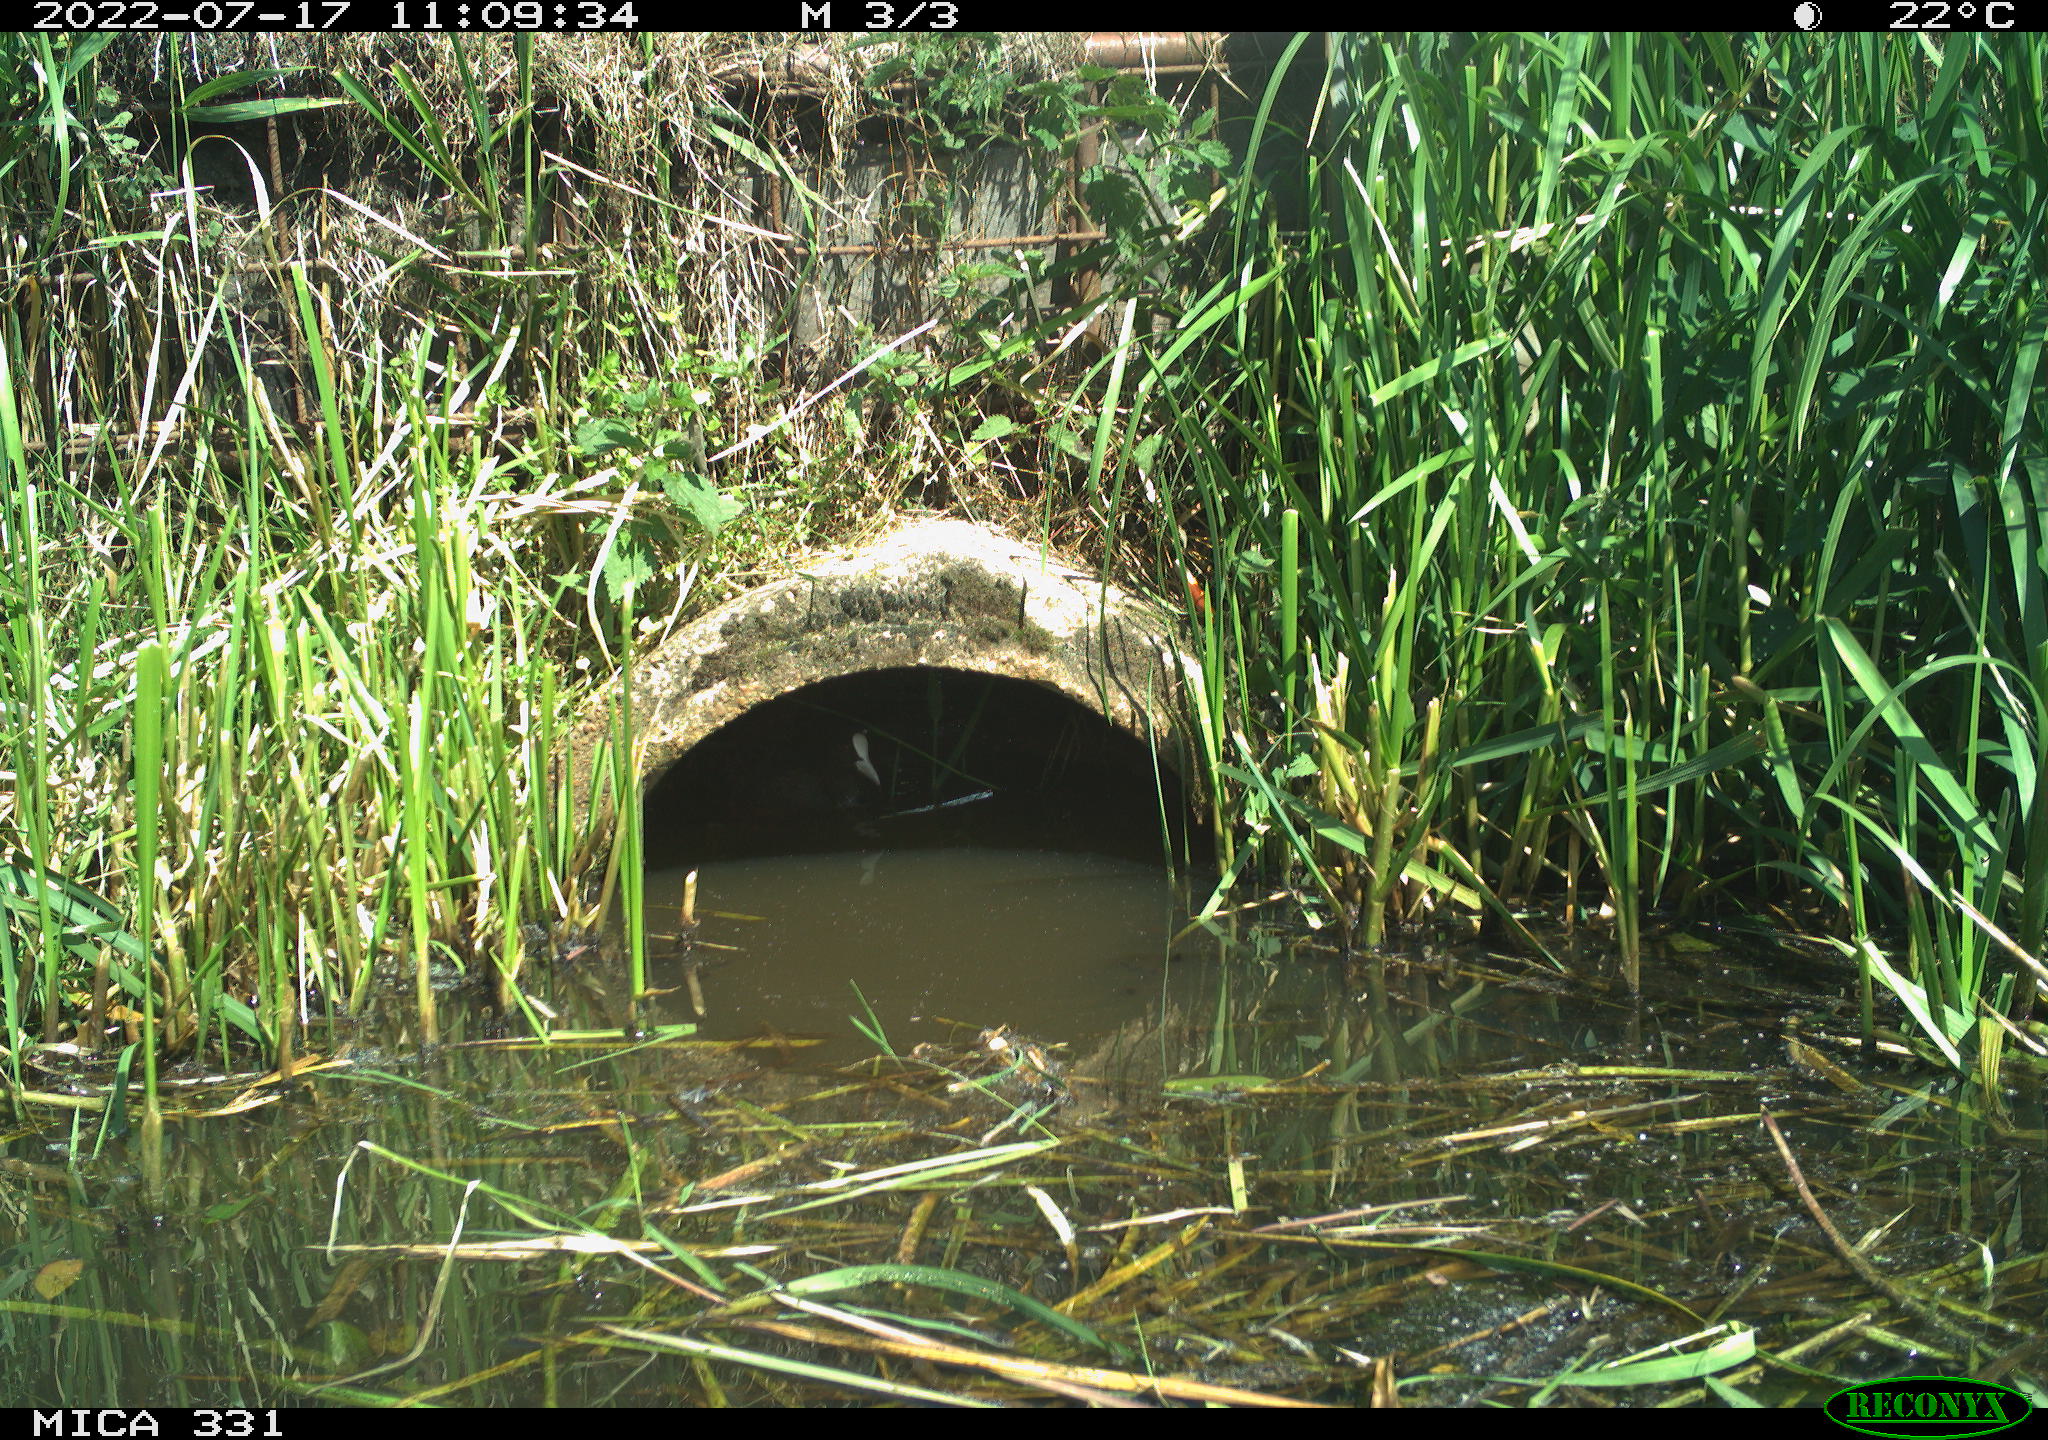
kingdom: Animalia
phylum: Chordata
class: Aves
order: Gruiformes
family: Rallidae
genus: Fulica
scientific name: Fulica atra
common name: Eurasian coot
